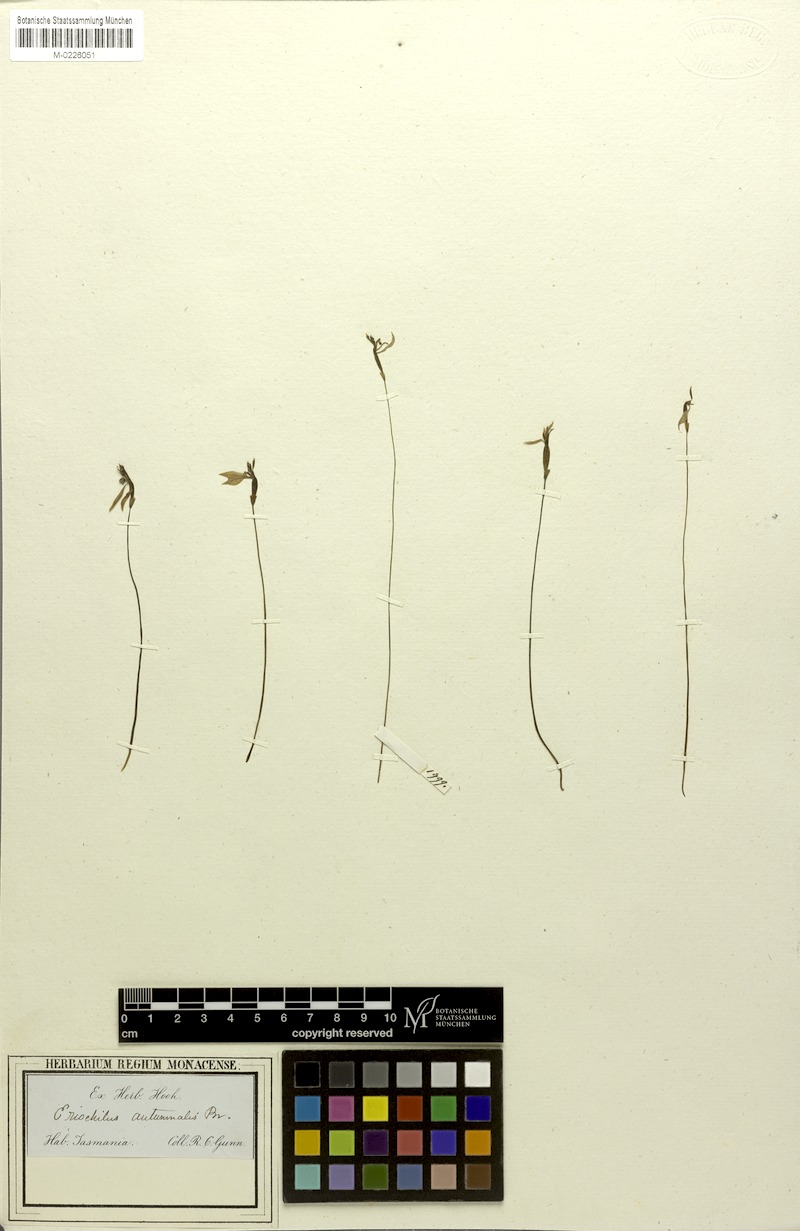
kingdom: Plantae
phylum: Tracheophyta
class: Liliopsida
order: Asparagales
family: Orchidaceae
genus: Eriochilus
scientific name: Eriochilus cucullatus
